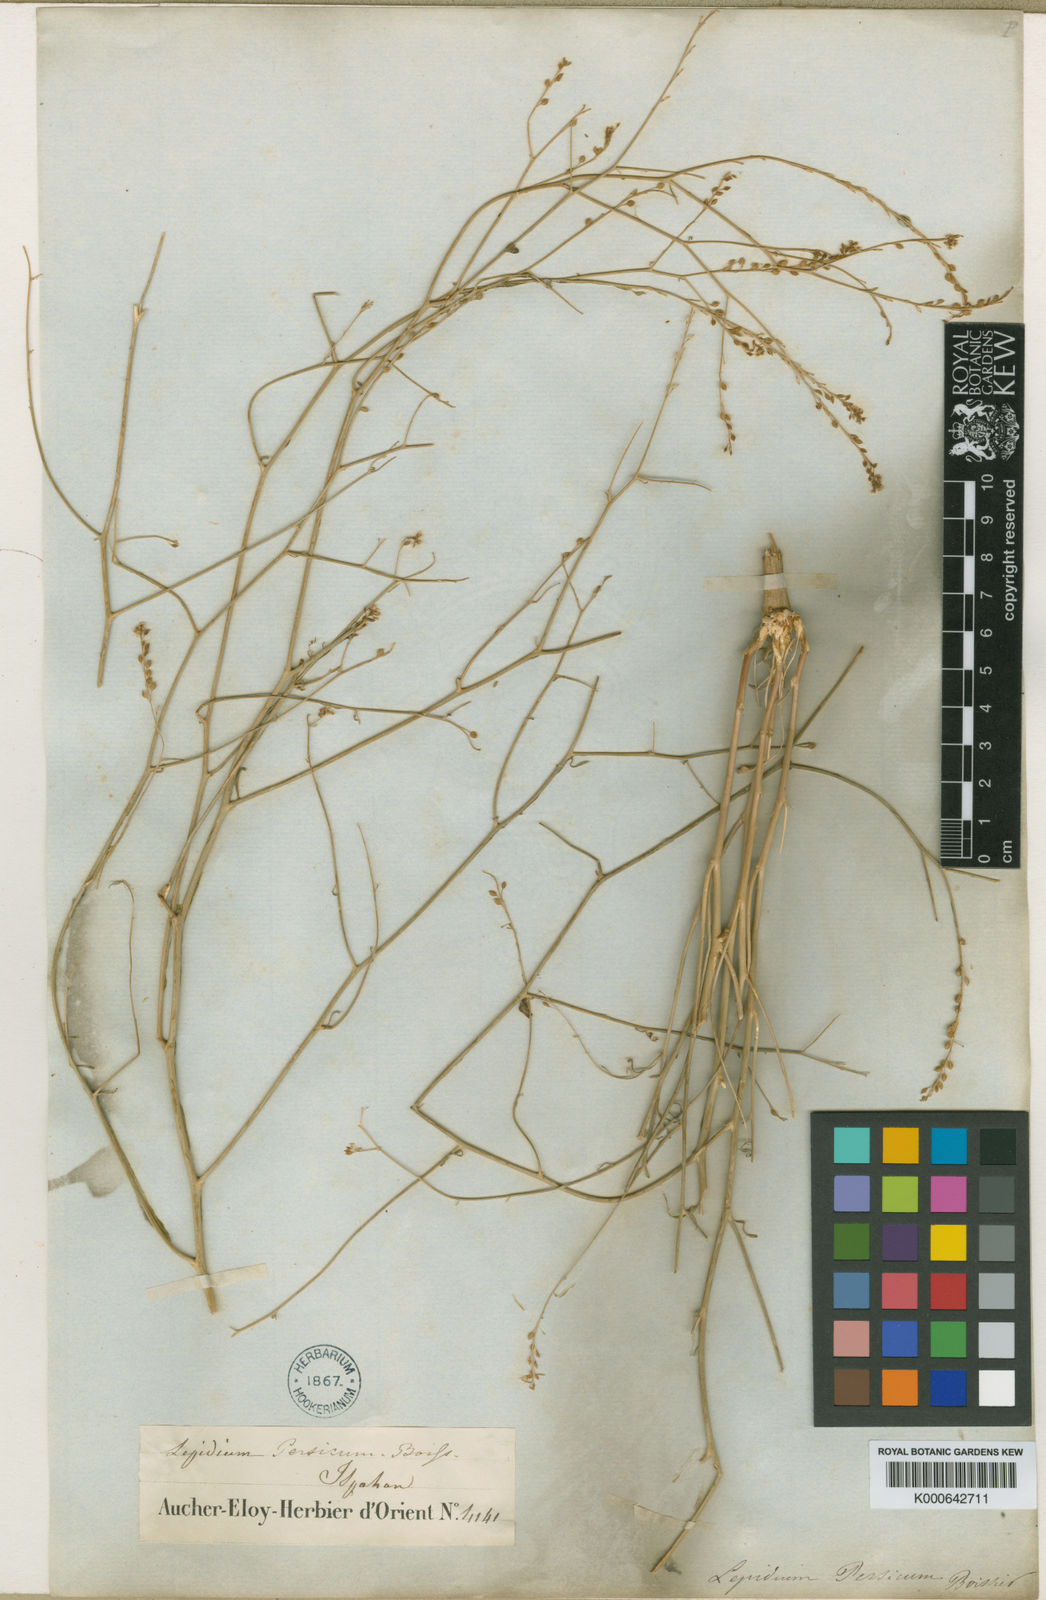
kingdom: Plantae
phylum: Tracheophyta
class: Magnoliopsida
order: Brassicales
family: Brassicaceae
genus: Lepidium
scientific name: Lepidium persicum
